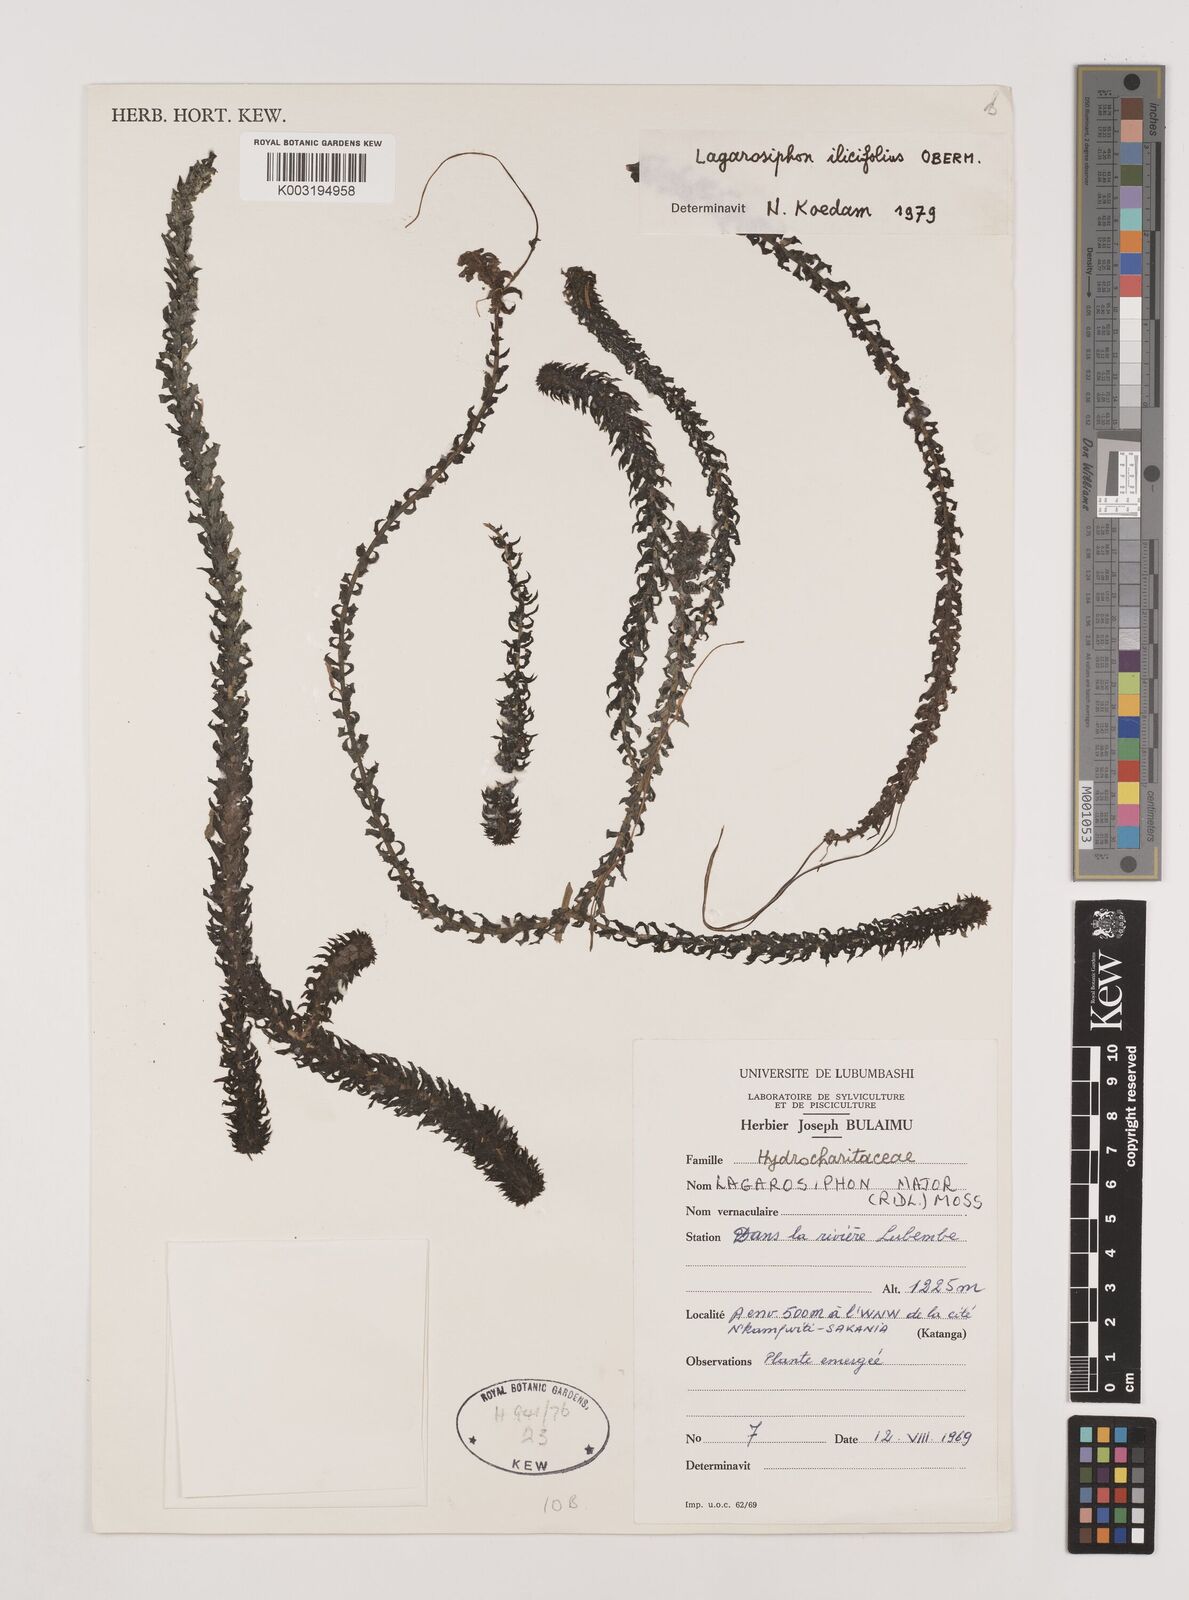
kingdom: Plantae
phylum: Tracheophyta
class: Liliopsida
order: Alismatales
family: Hydrocharitaceae
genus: Lagarosiphon
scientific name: Lagarosiphon ilicifolius
